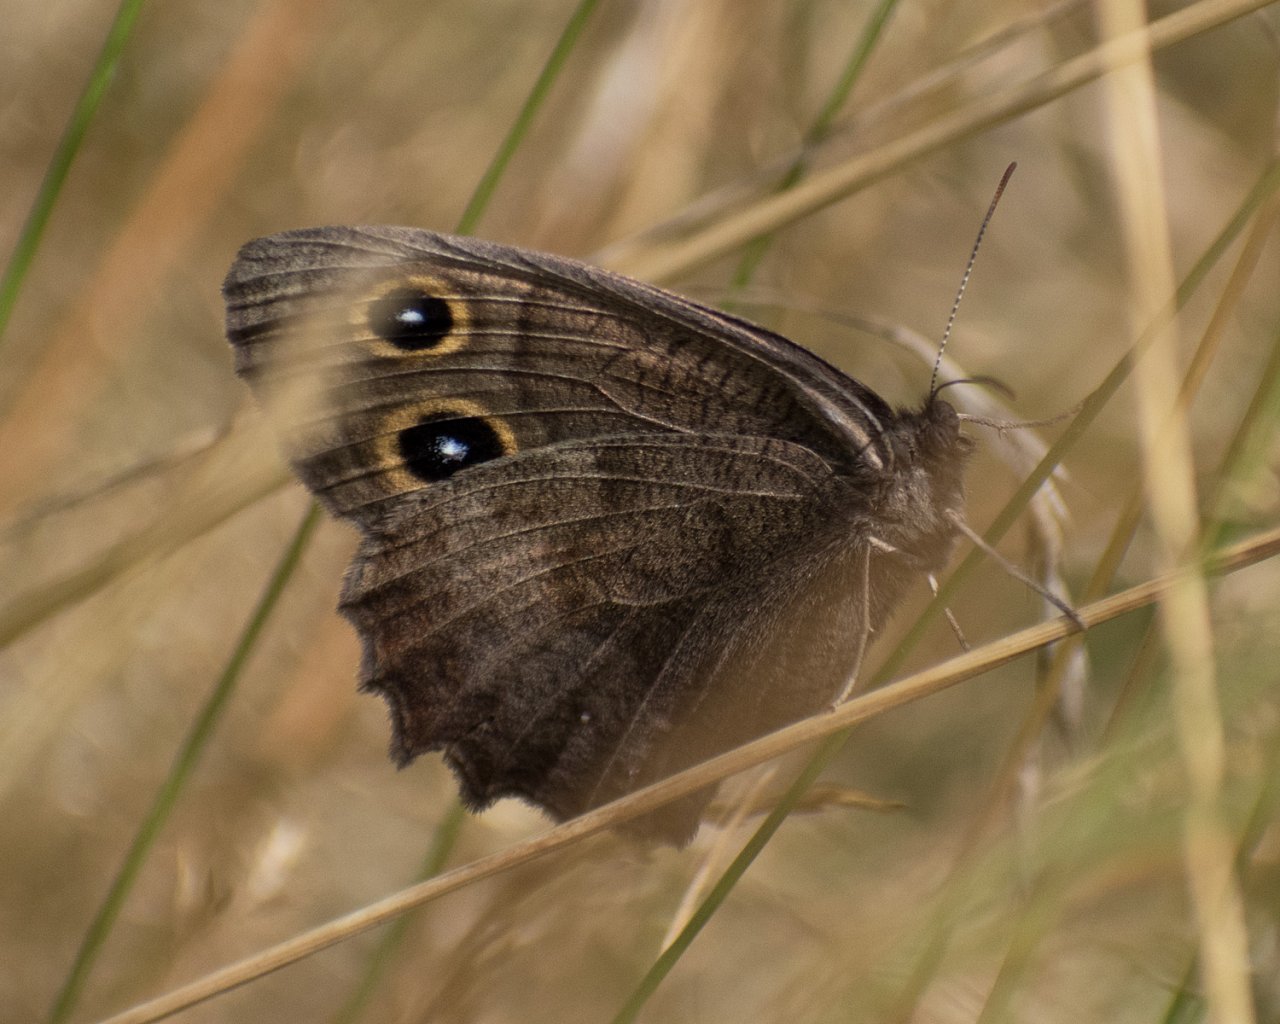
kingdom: Animalia
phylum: Arthropoda
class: Insecta
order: Lepidoptera
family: Nymphalidae
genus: Cercyonis
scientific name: Cercyonis pegala
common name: Common Wood-Nymph
